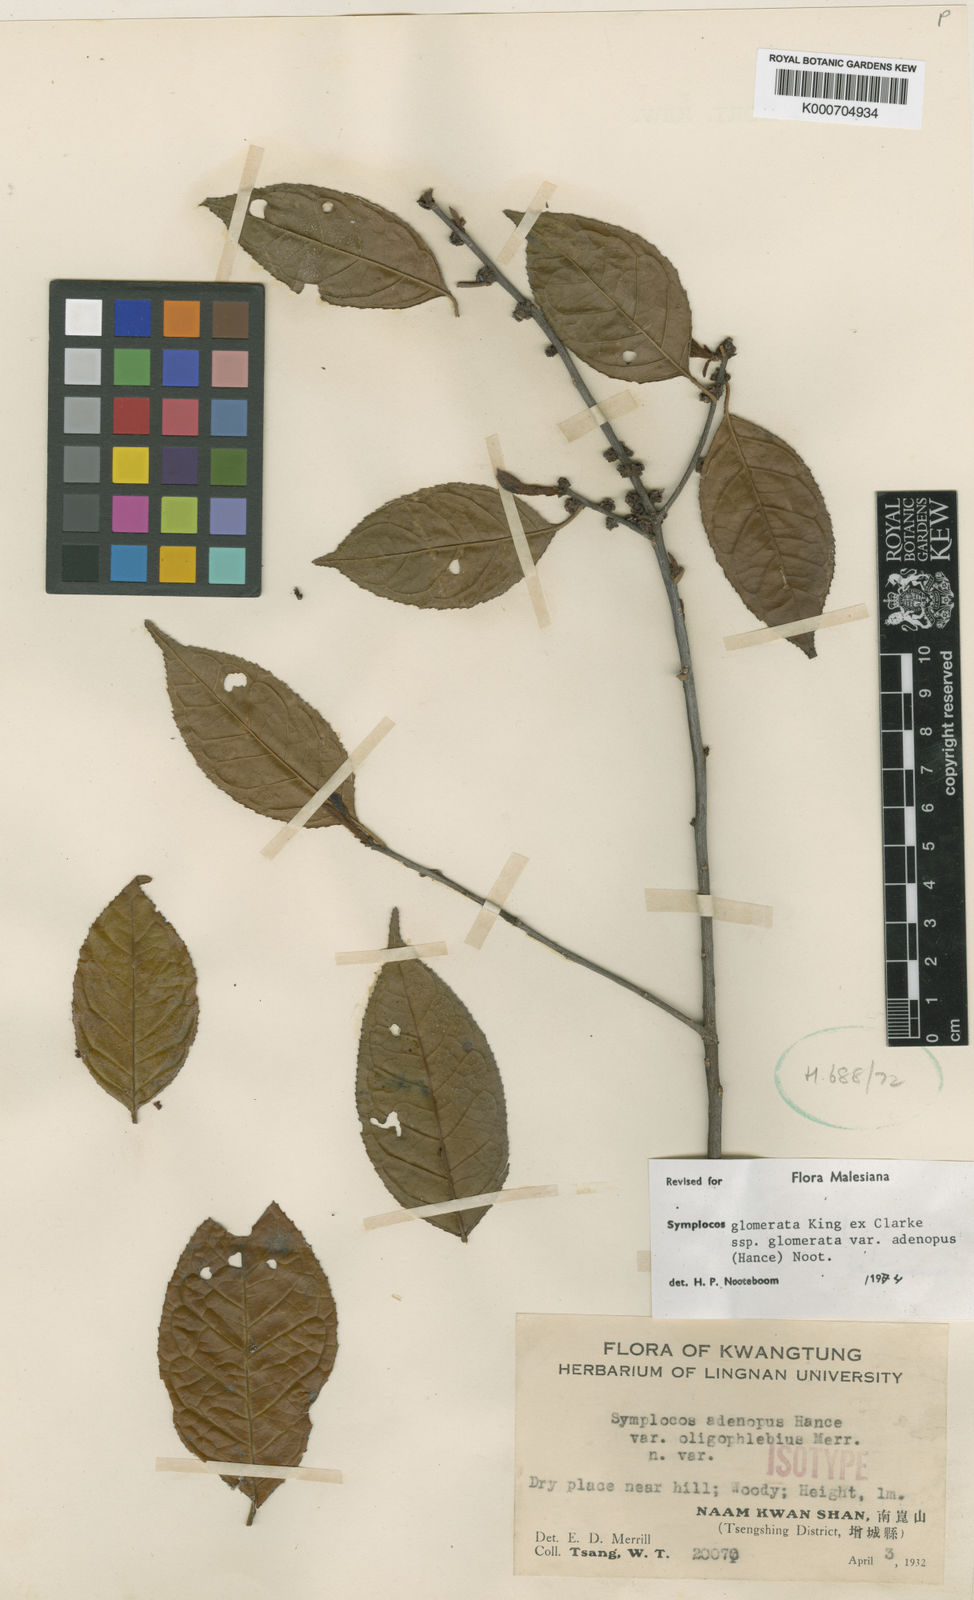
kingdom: Plantae
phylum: Tracheophyta
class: Magnoliopsida
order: Ericales
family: Symplocaceae
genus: Symplocos
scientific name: Symplocos congesta
